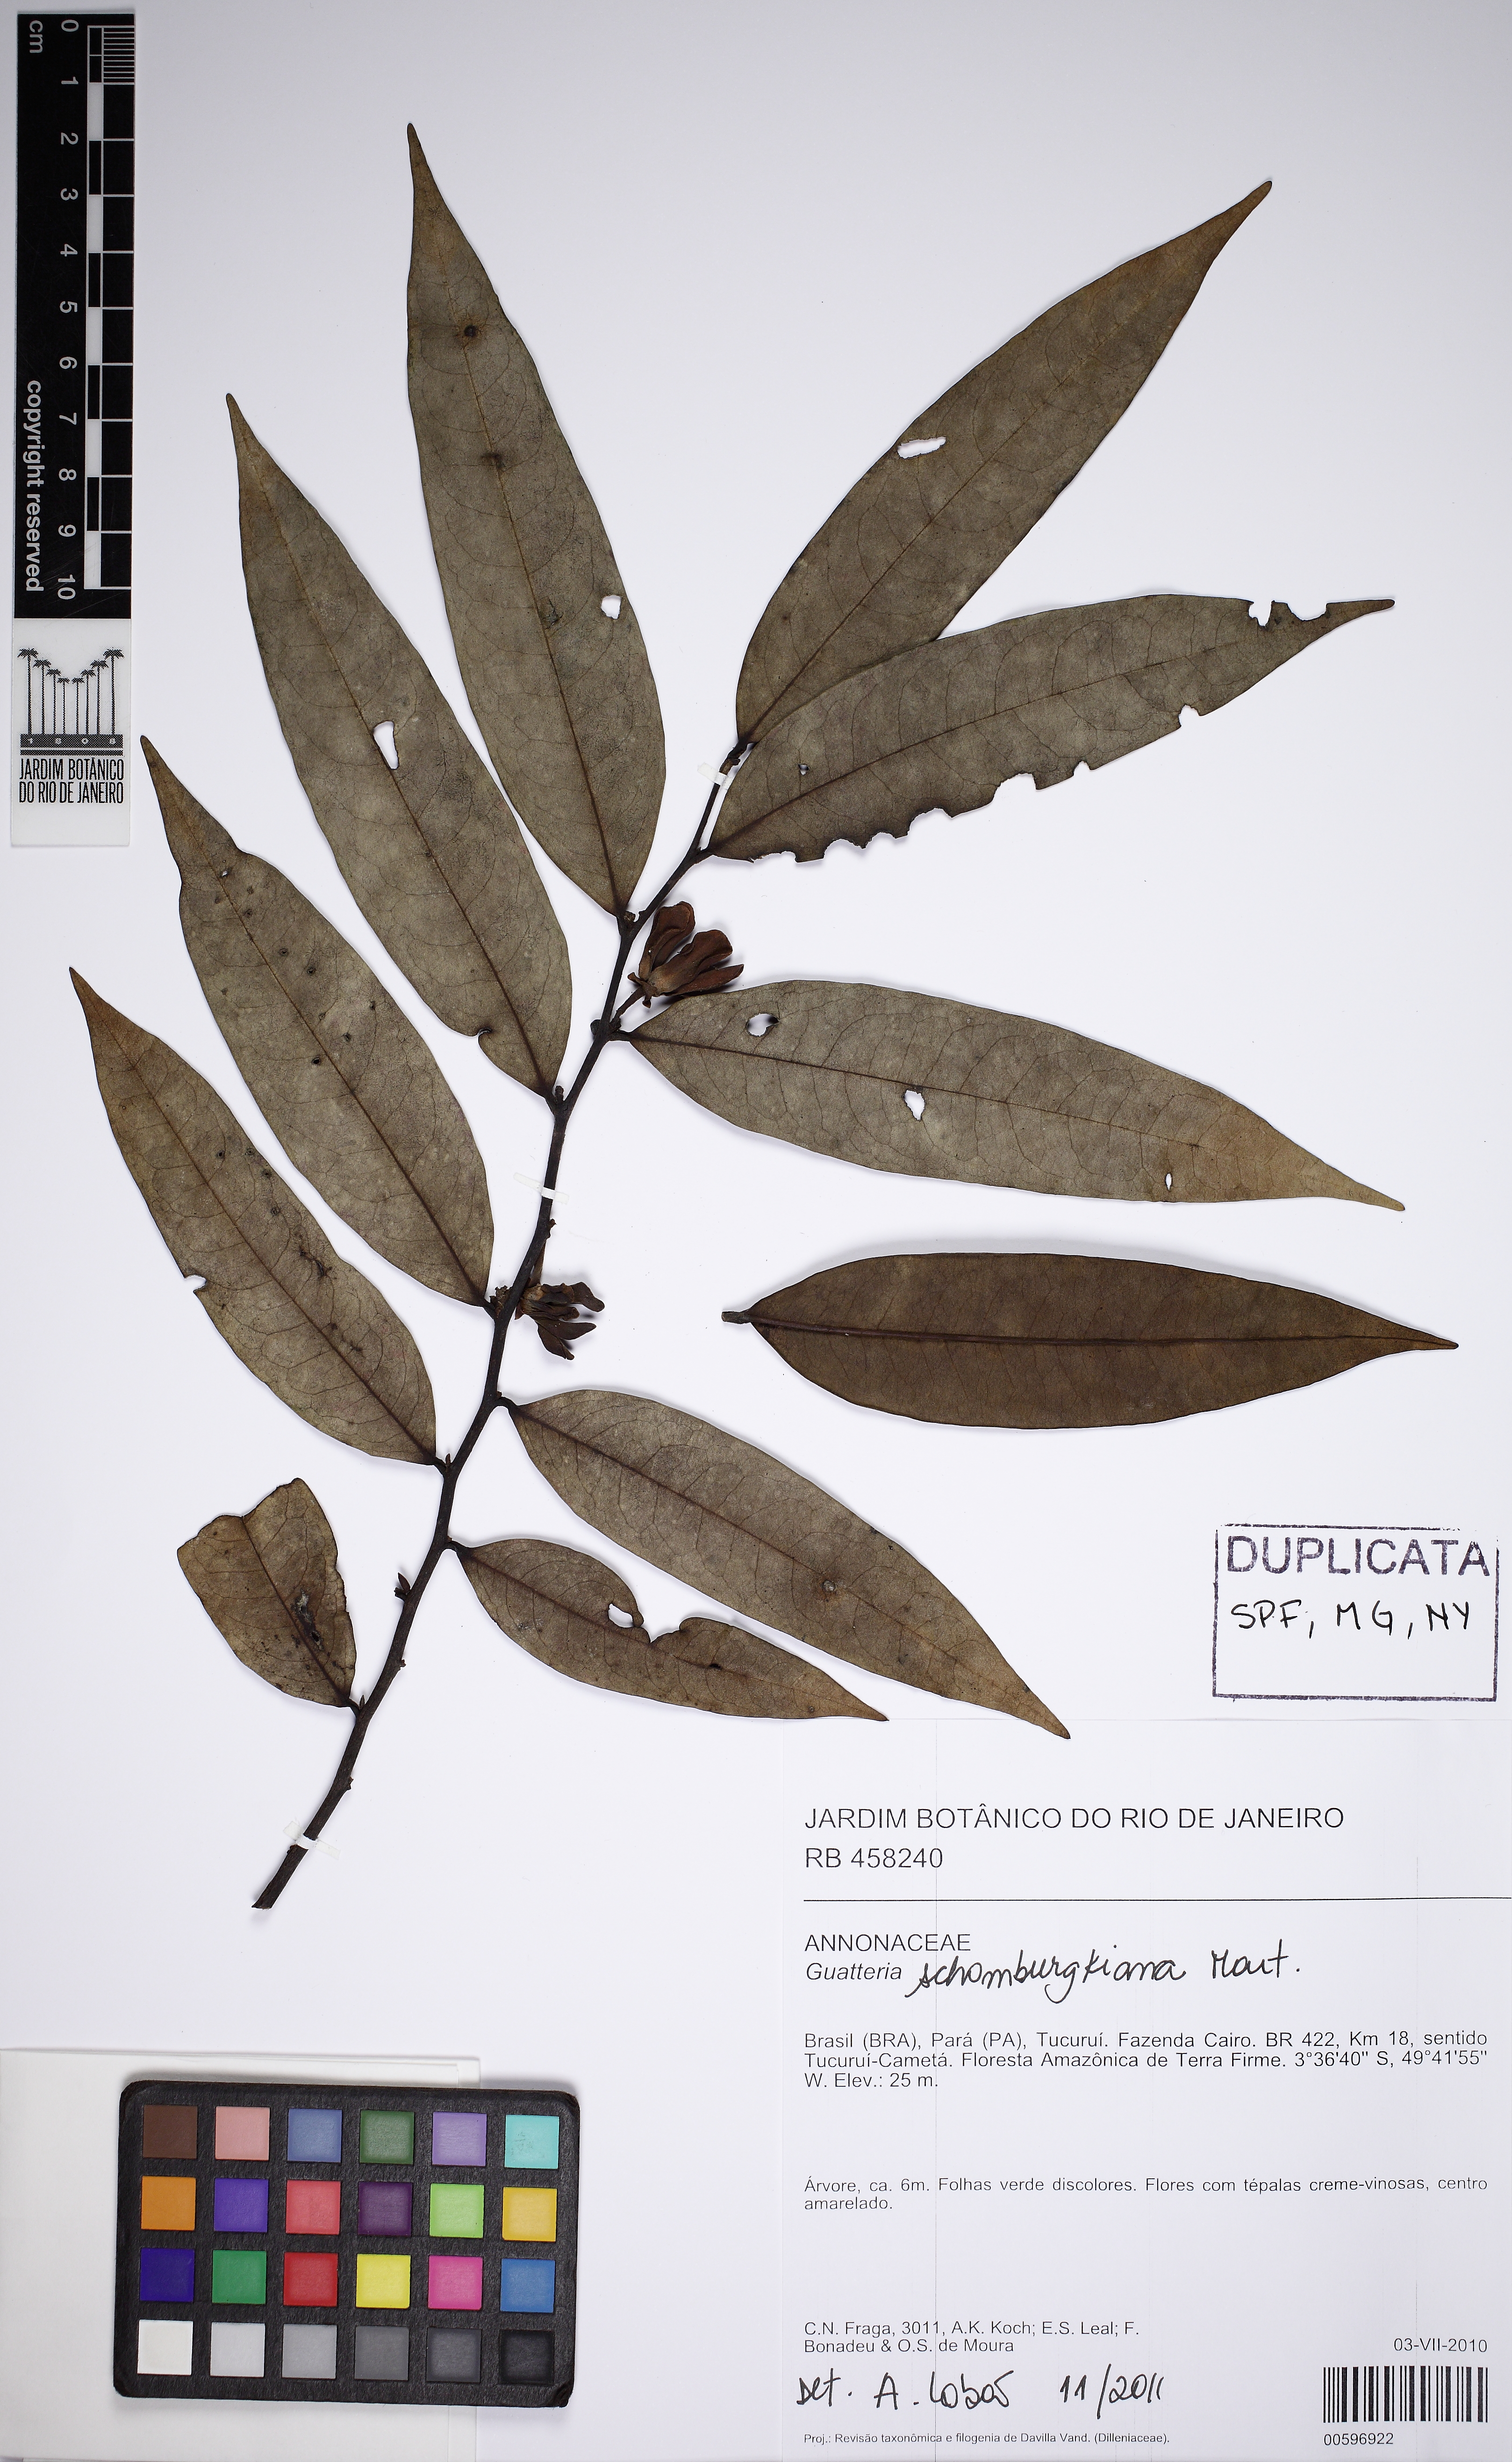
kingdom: Plantae
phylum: Tracheophyta
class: Magnoliopsida
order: Magnoliales
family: Annonaceae
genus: Guatteria
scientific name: Guatteria schomburgkiana
